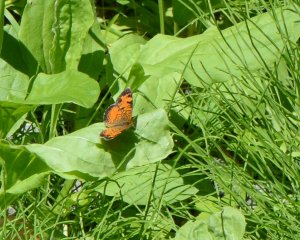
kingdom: Animalia
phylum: Arthropoda
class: Insecta
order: Lepidoptera
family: Nymphalidae
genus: Phyciodes
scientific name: Phyciodes tharos
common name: Northern Crescent
